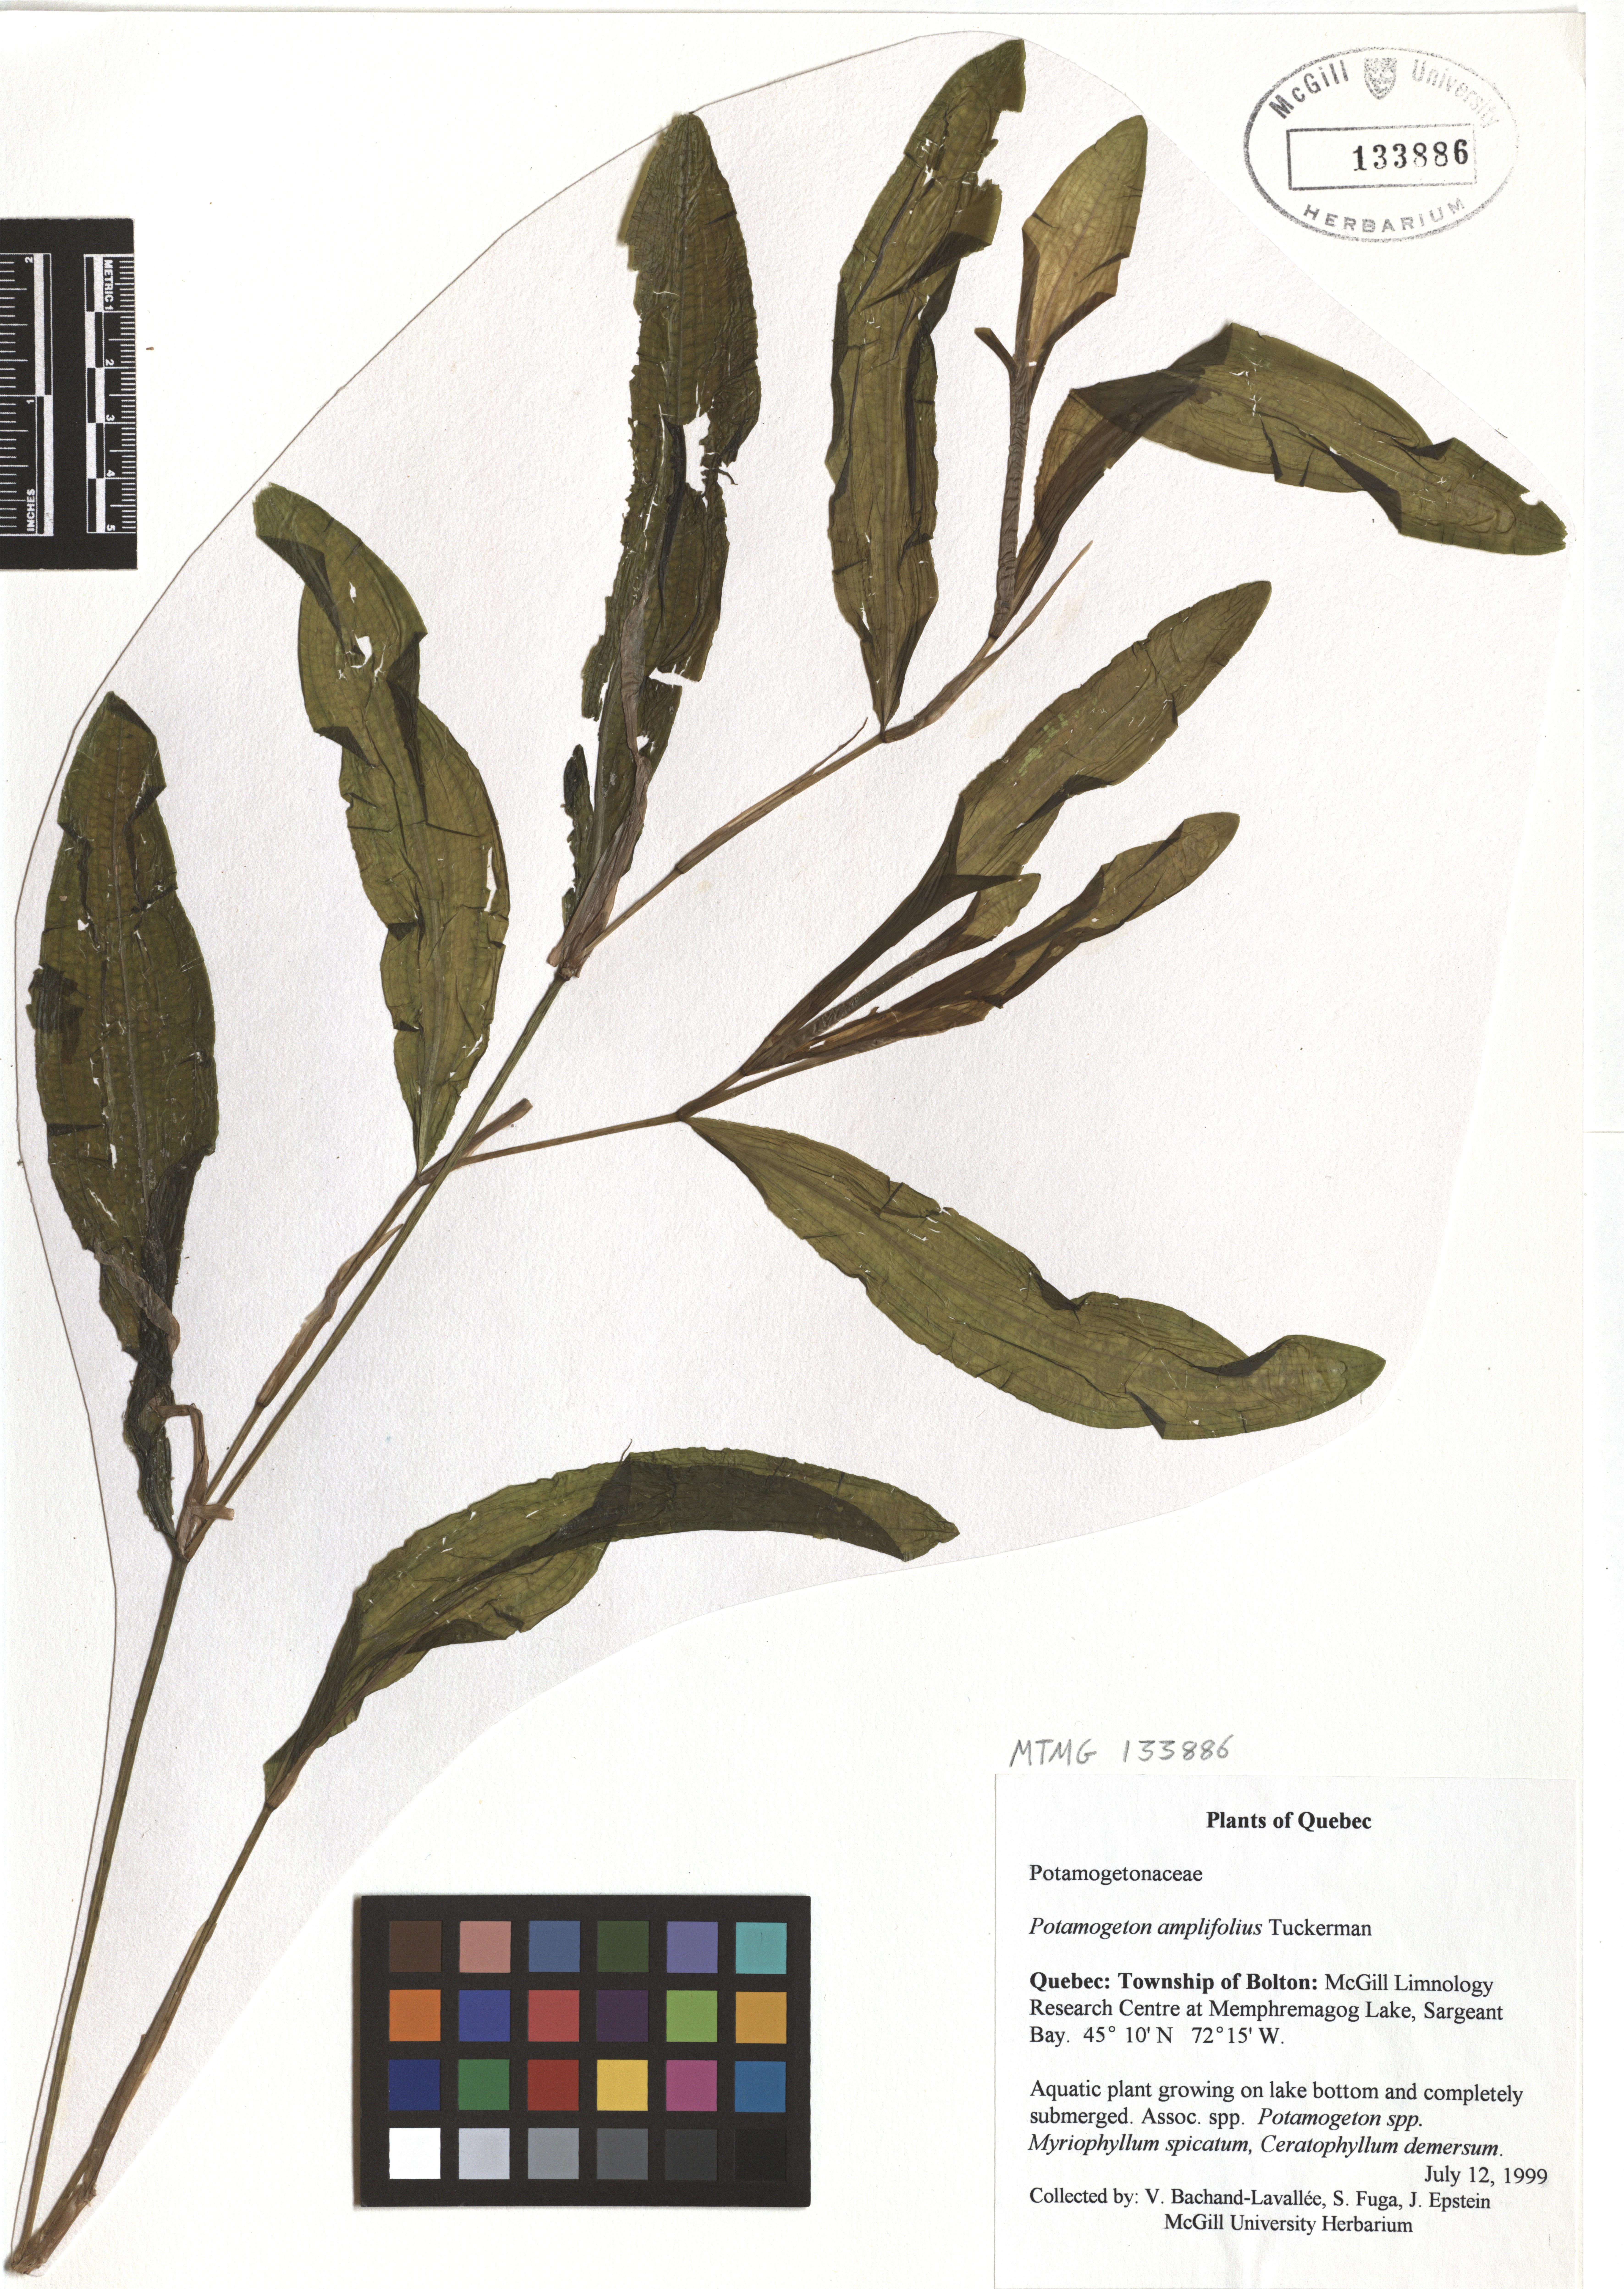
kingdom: Plantae
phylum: Tracheophyta
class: Liliopsida
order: Alismatales
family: Potamogetonaceae
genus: Potamogeton
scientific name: Potamogeton amplifolius
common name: Broad-leaved pondweed
